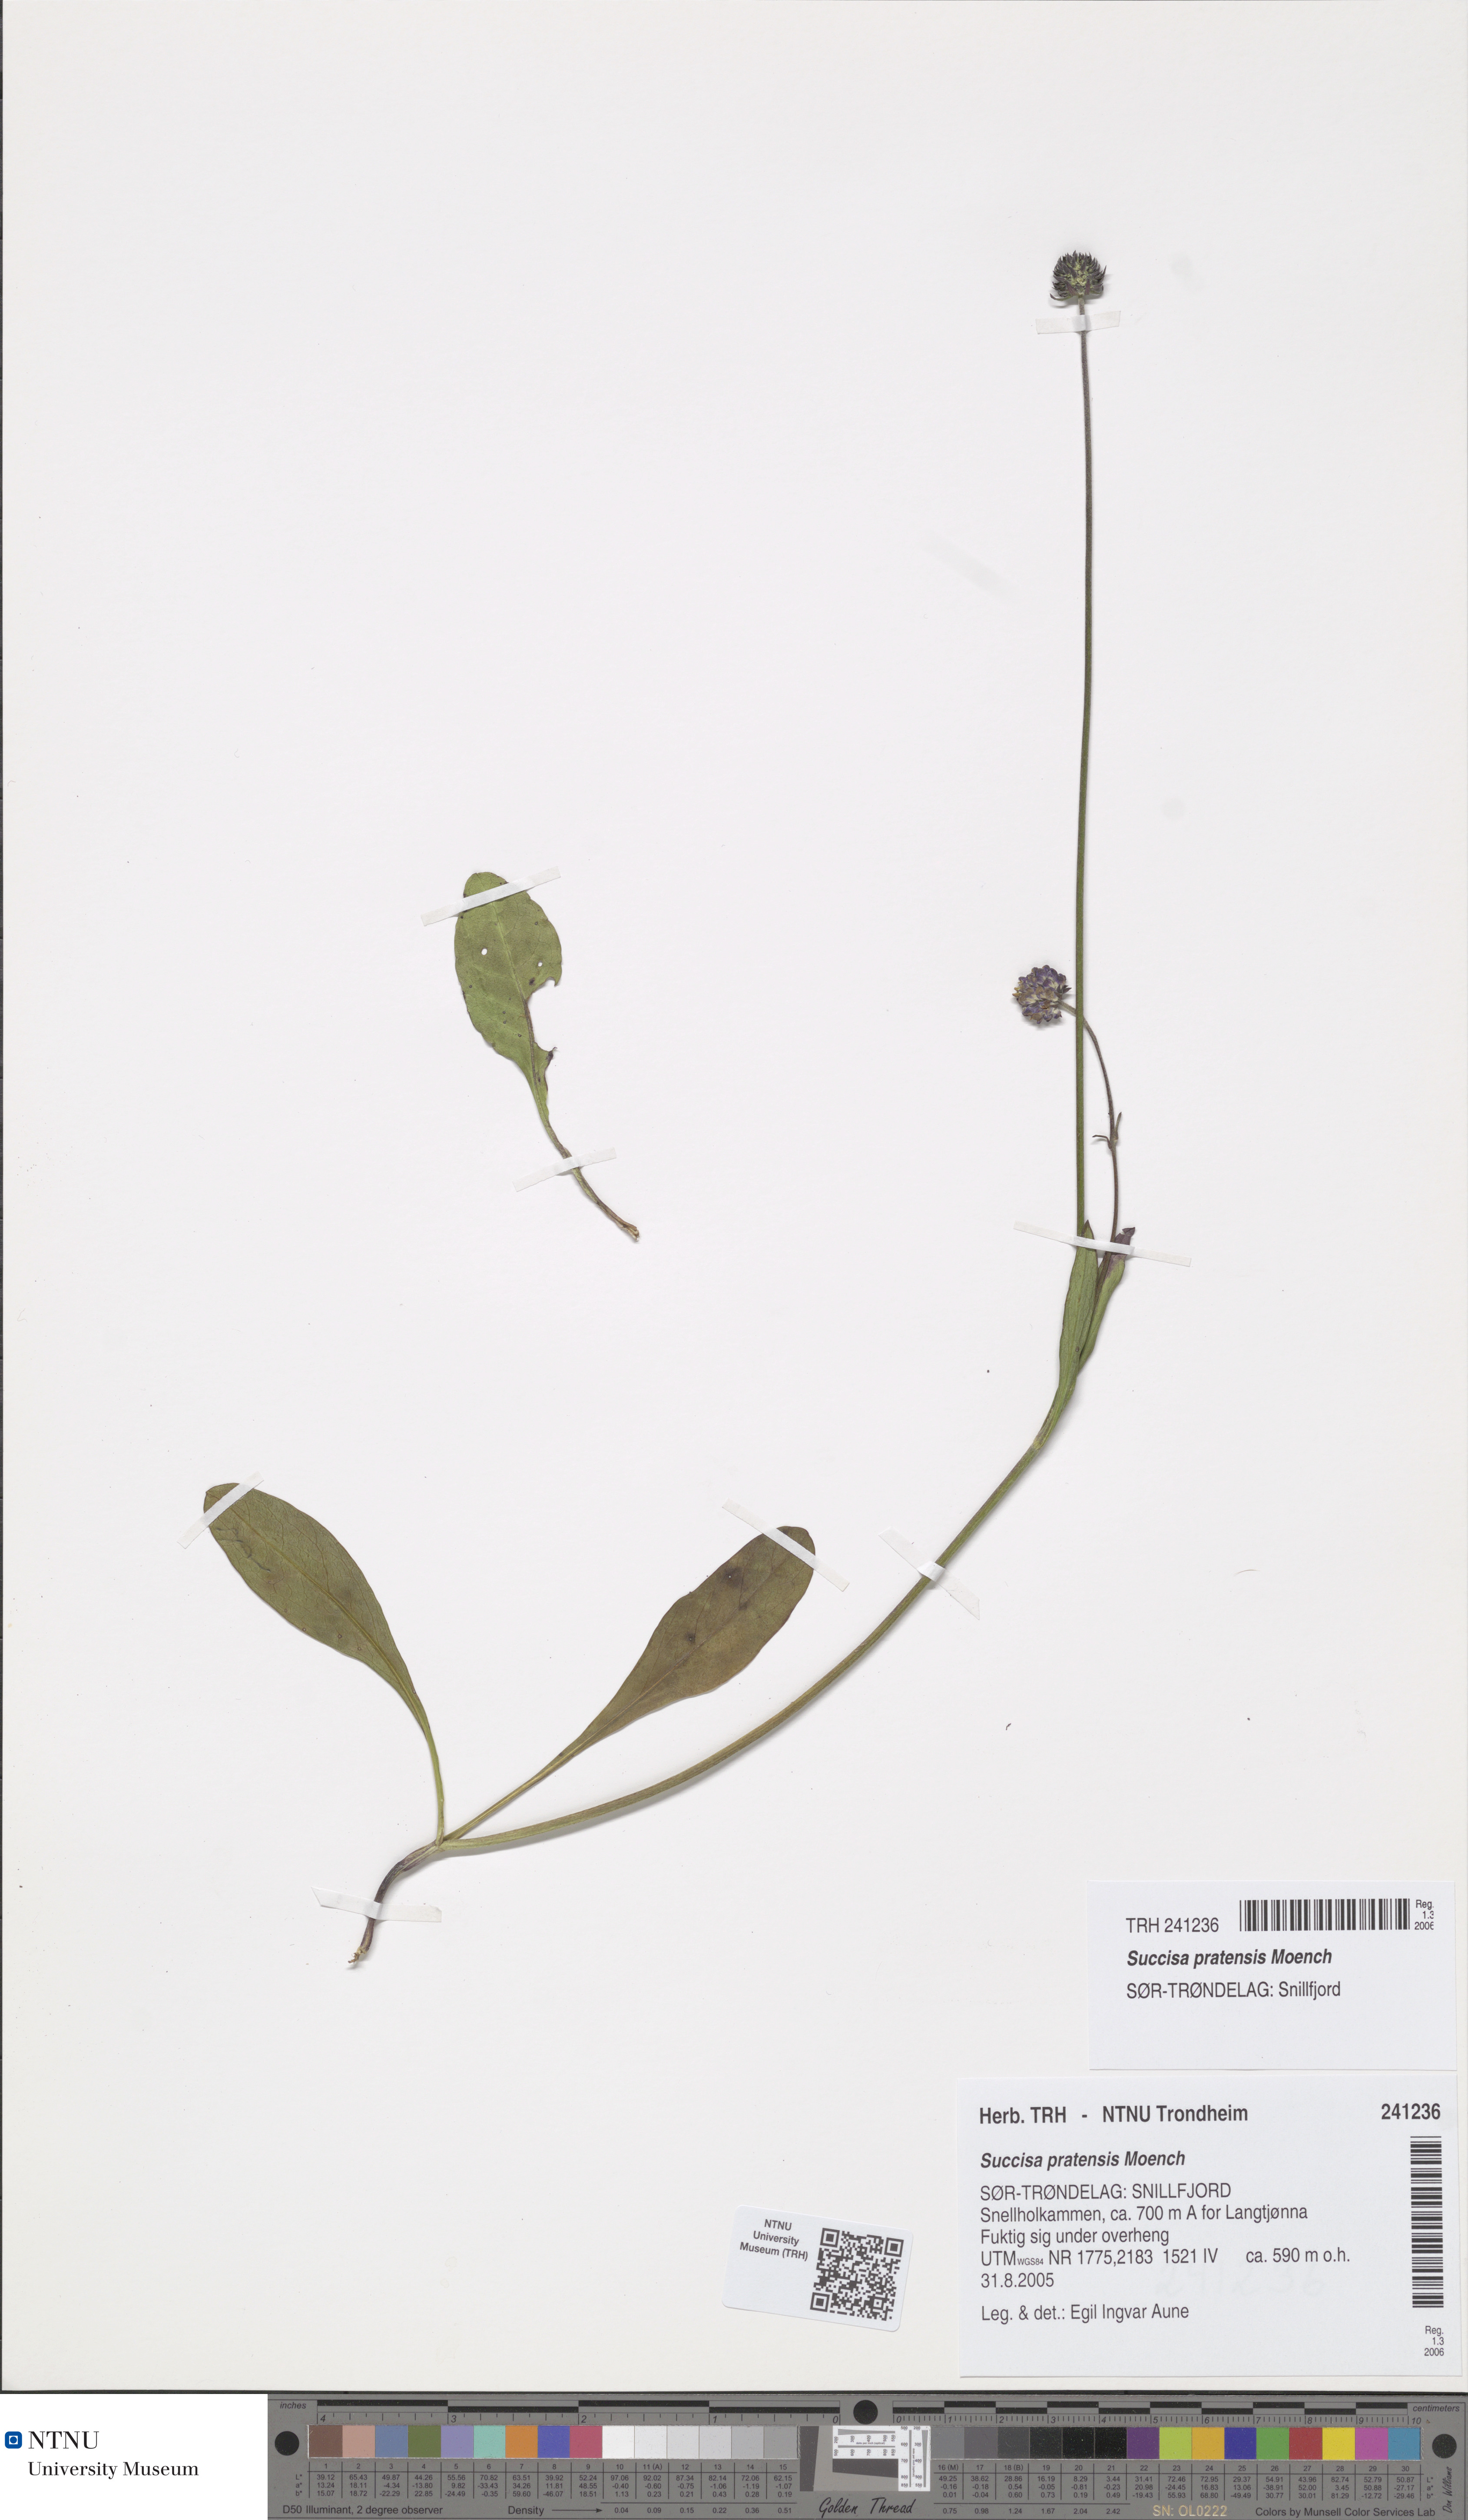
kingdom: Plantae
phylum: Tracheophyta
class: Magnoliopsida
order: Dipsacales
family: Caprifoliaceae
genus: Succisa
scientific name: Succisa pratensis
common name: Devil's-bit
